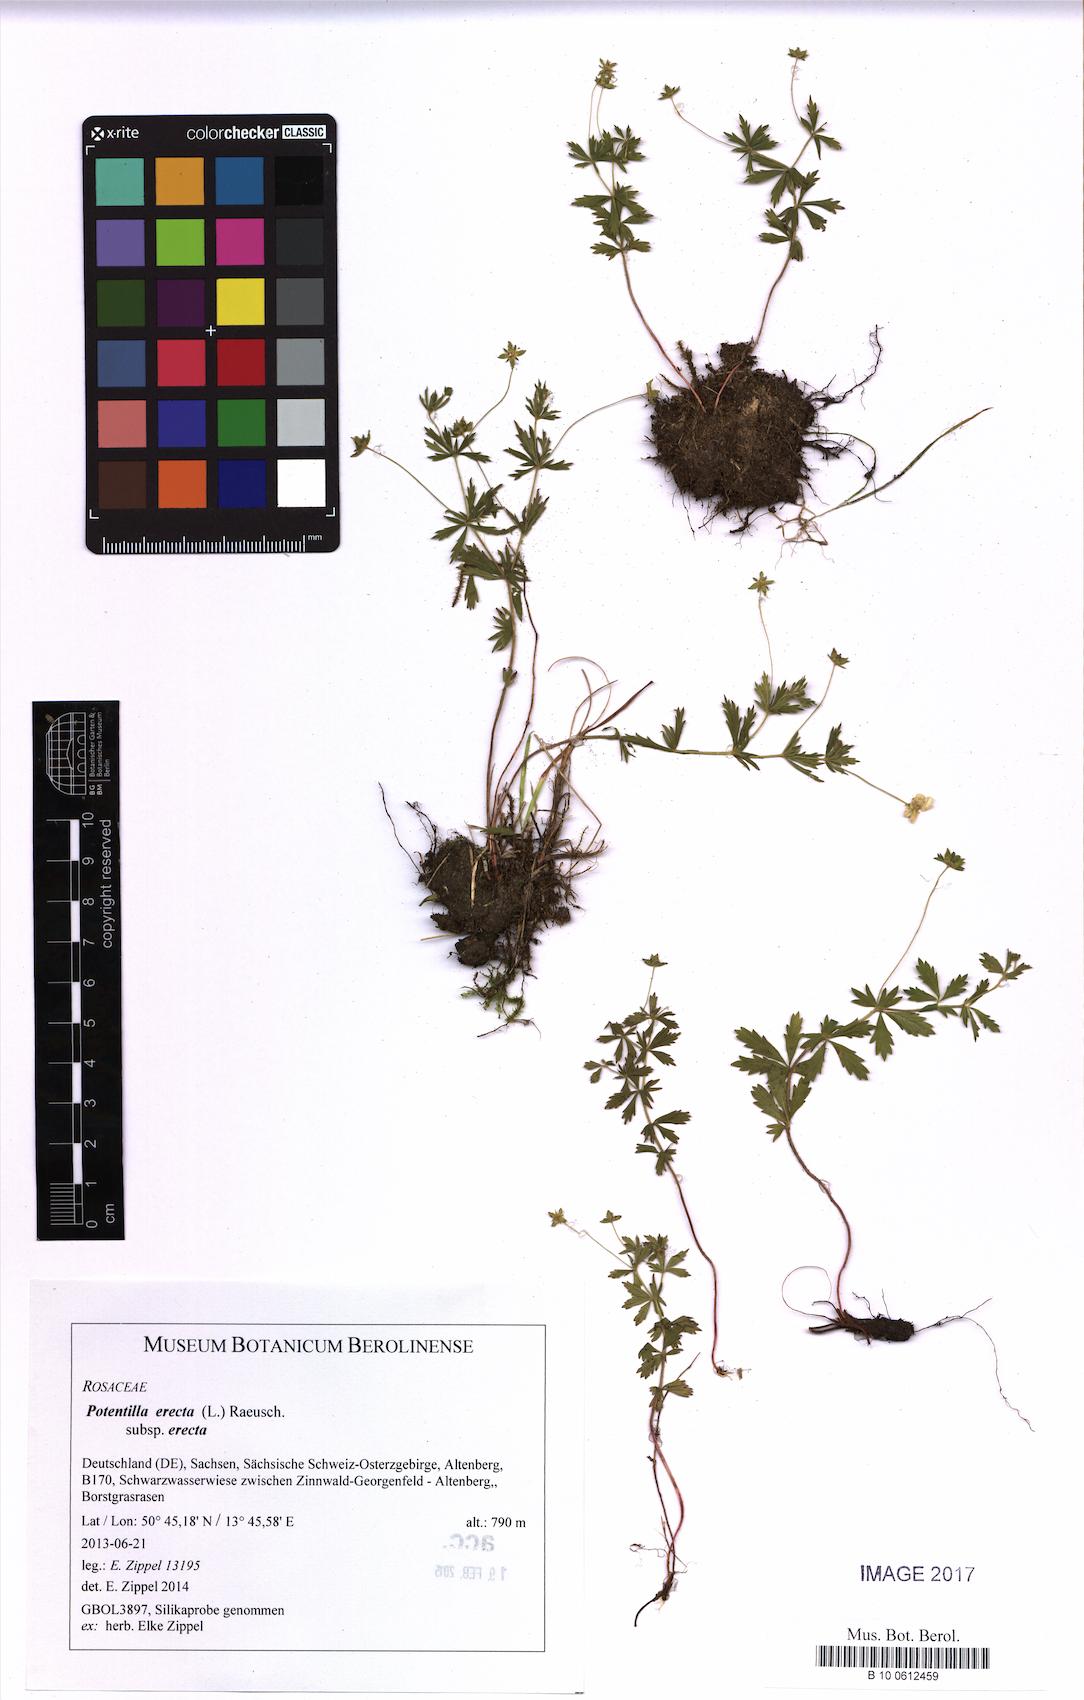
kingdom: Plantae
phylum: Tracheophyta
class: Magnoliopsida
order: Rosales
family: Rosaceae
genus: Potentilla
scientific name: Potentilla erecta
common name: Tormentil
